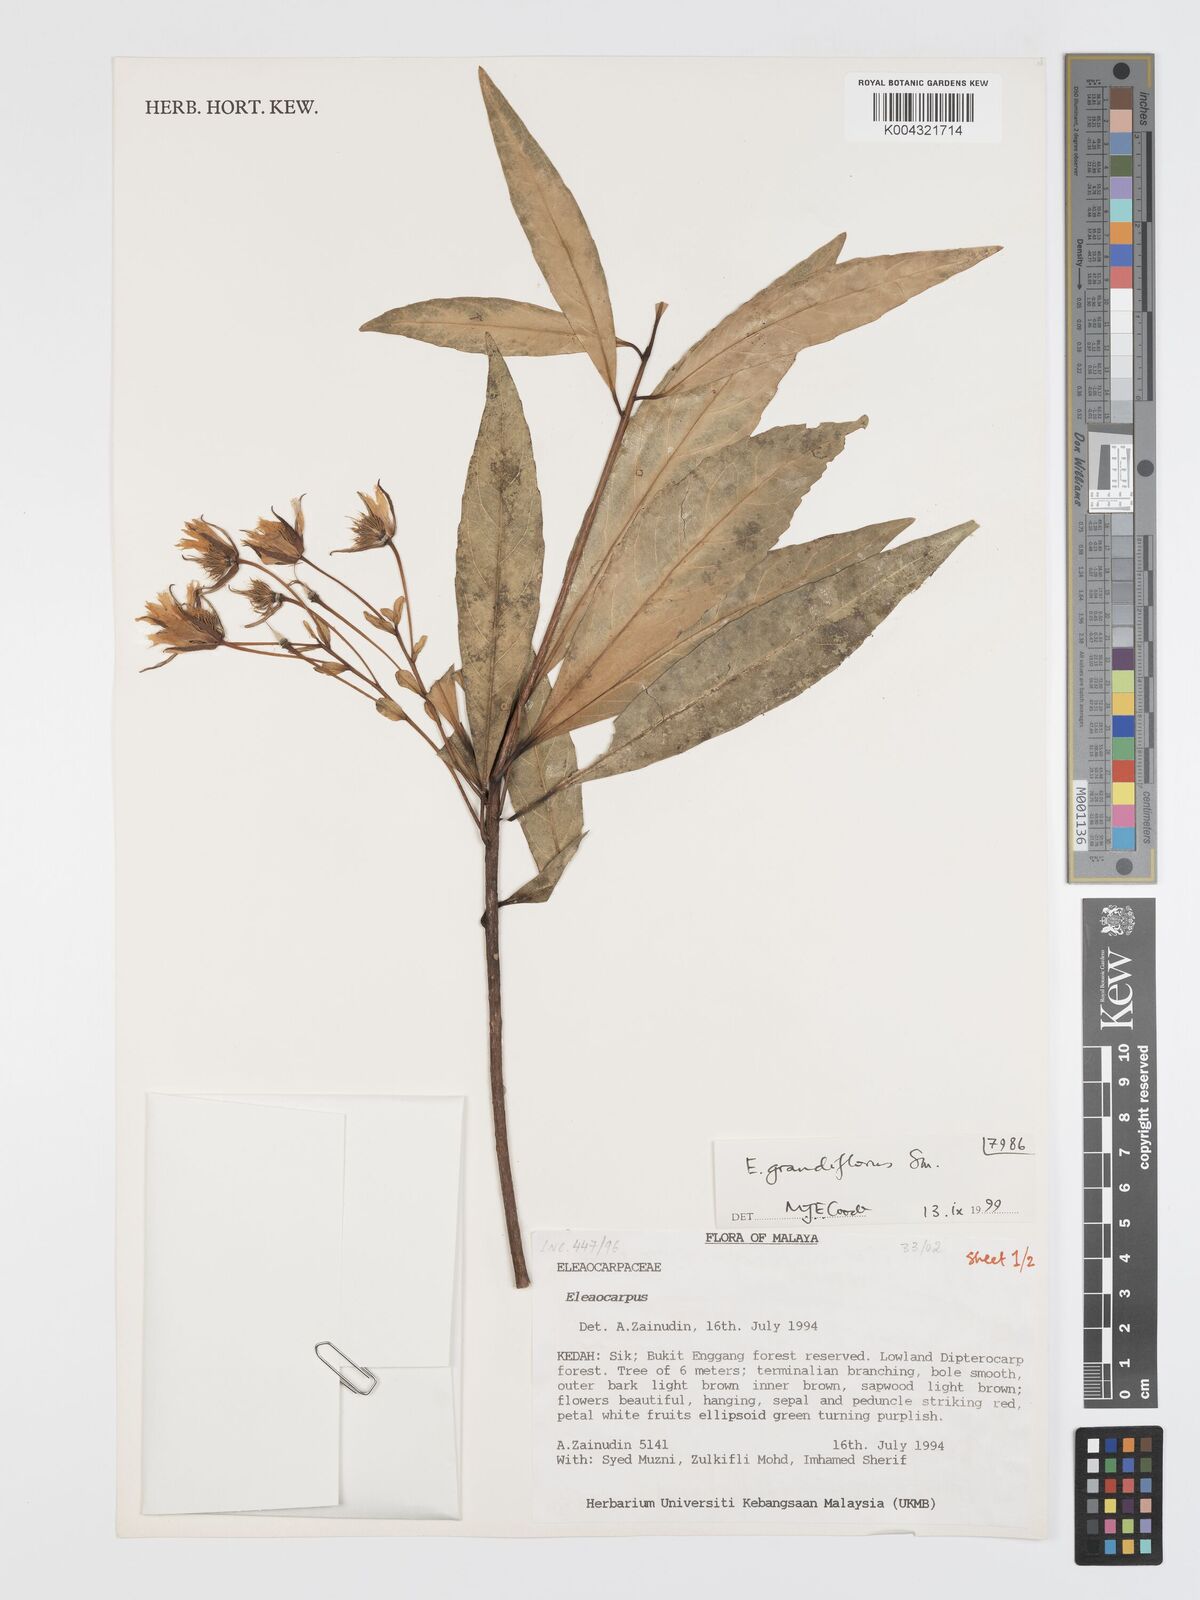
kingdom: Plantae
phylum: Tracheophyta
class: Magnoliopsida
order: Oxalidales
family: Elaeocarpaceae
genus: Elaeocarpus
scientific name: Elaeocarpus grandiflorus
